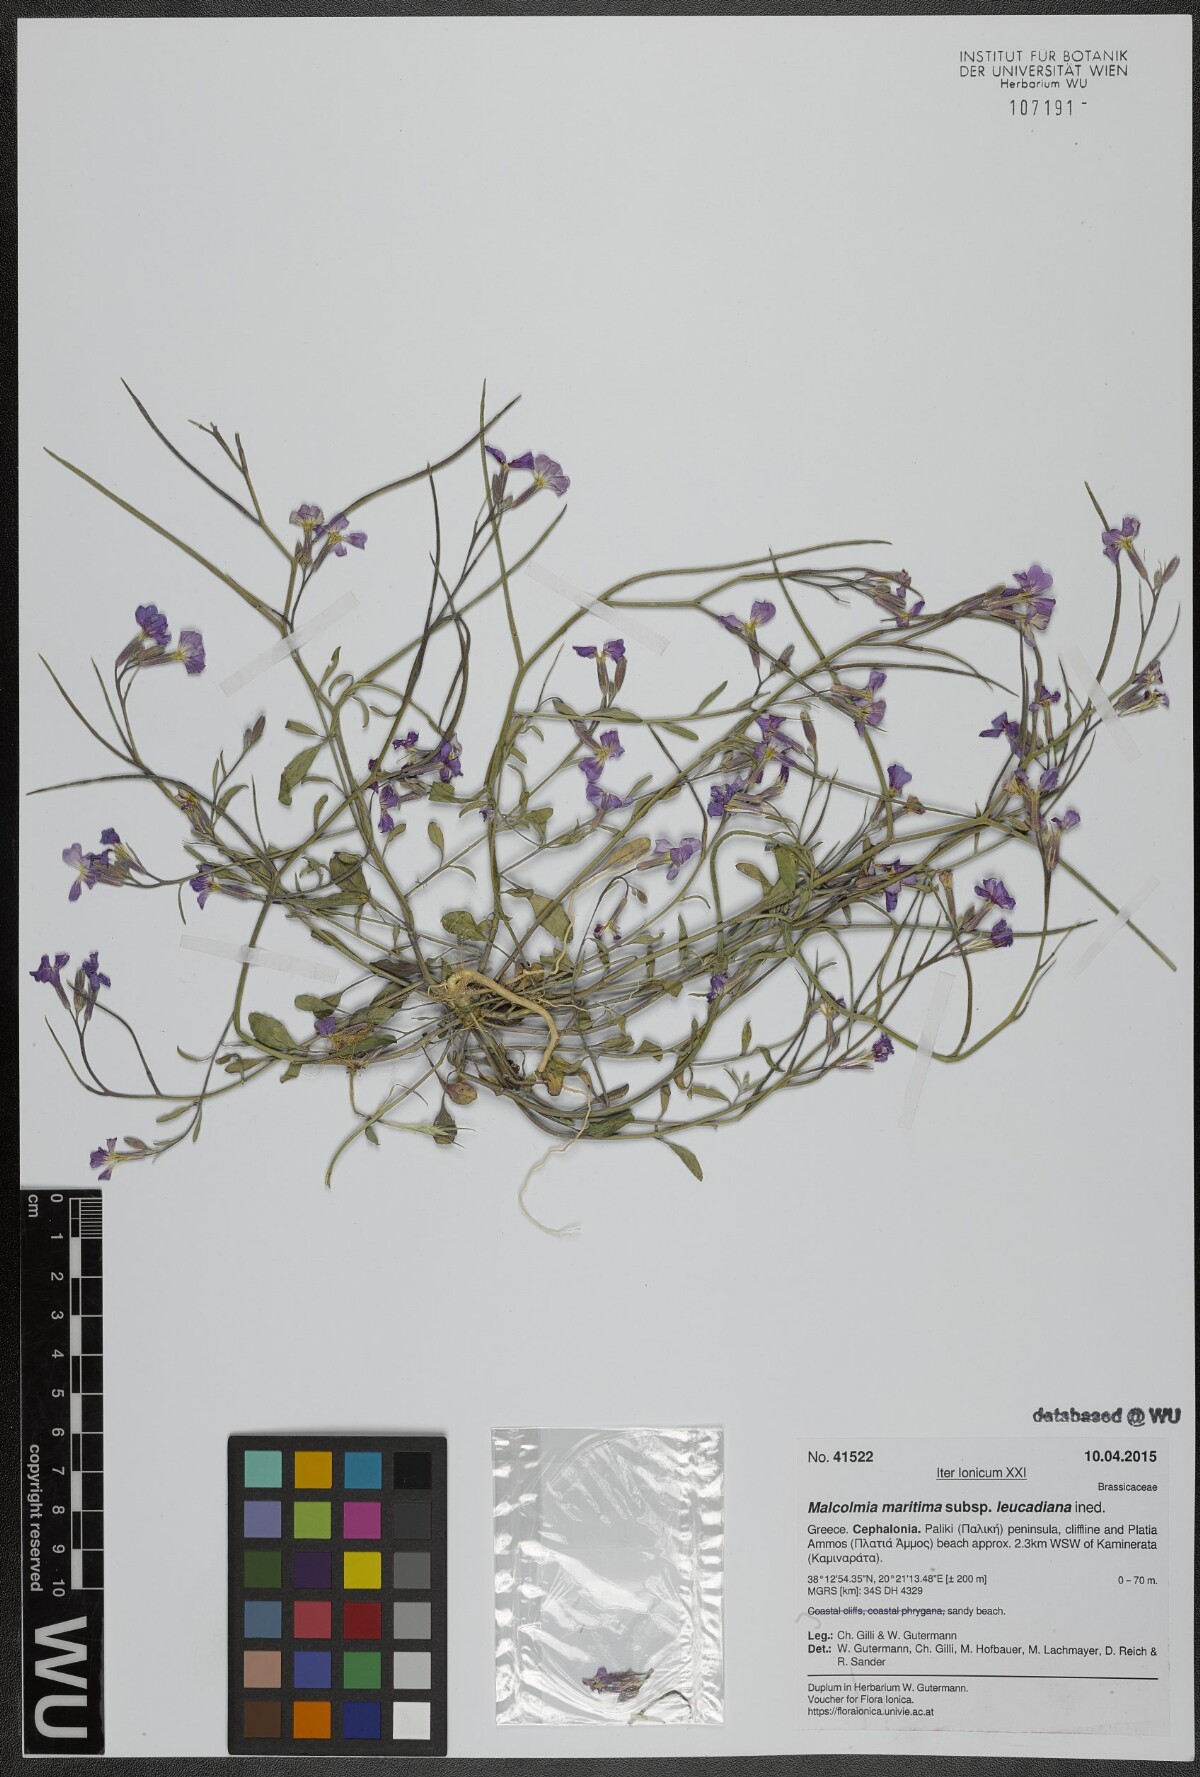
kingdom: Plantae
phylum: Tracheophyta
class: Magnoliopsida
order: Brassicales
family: Brassicaceae
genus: Malcolmia
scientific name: Malcolmia maritima
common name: Virginia stock
